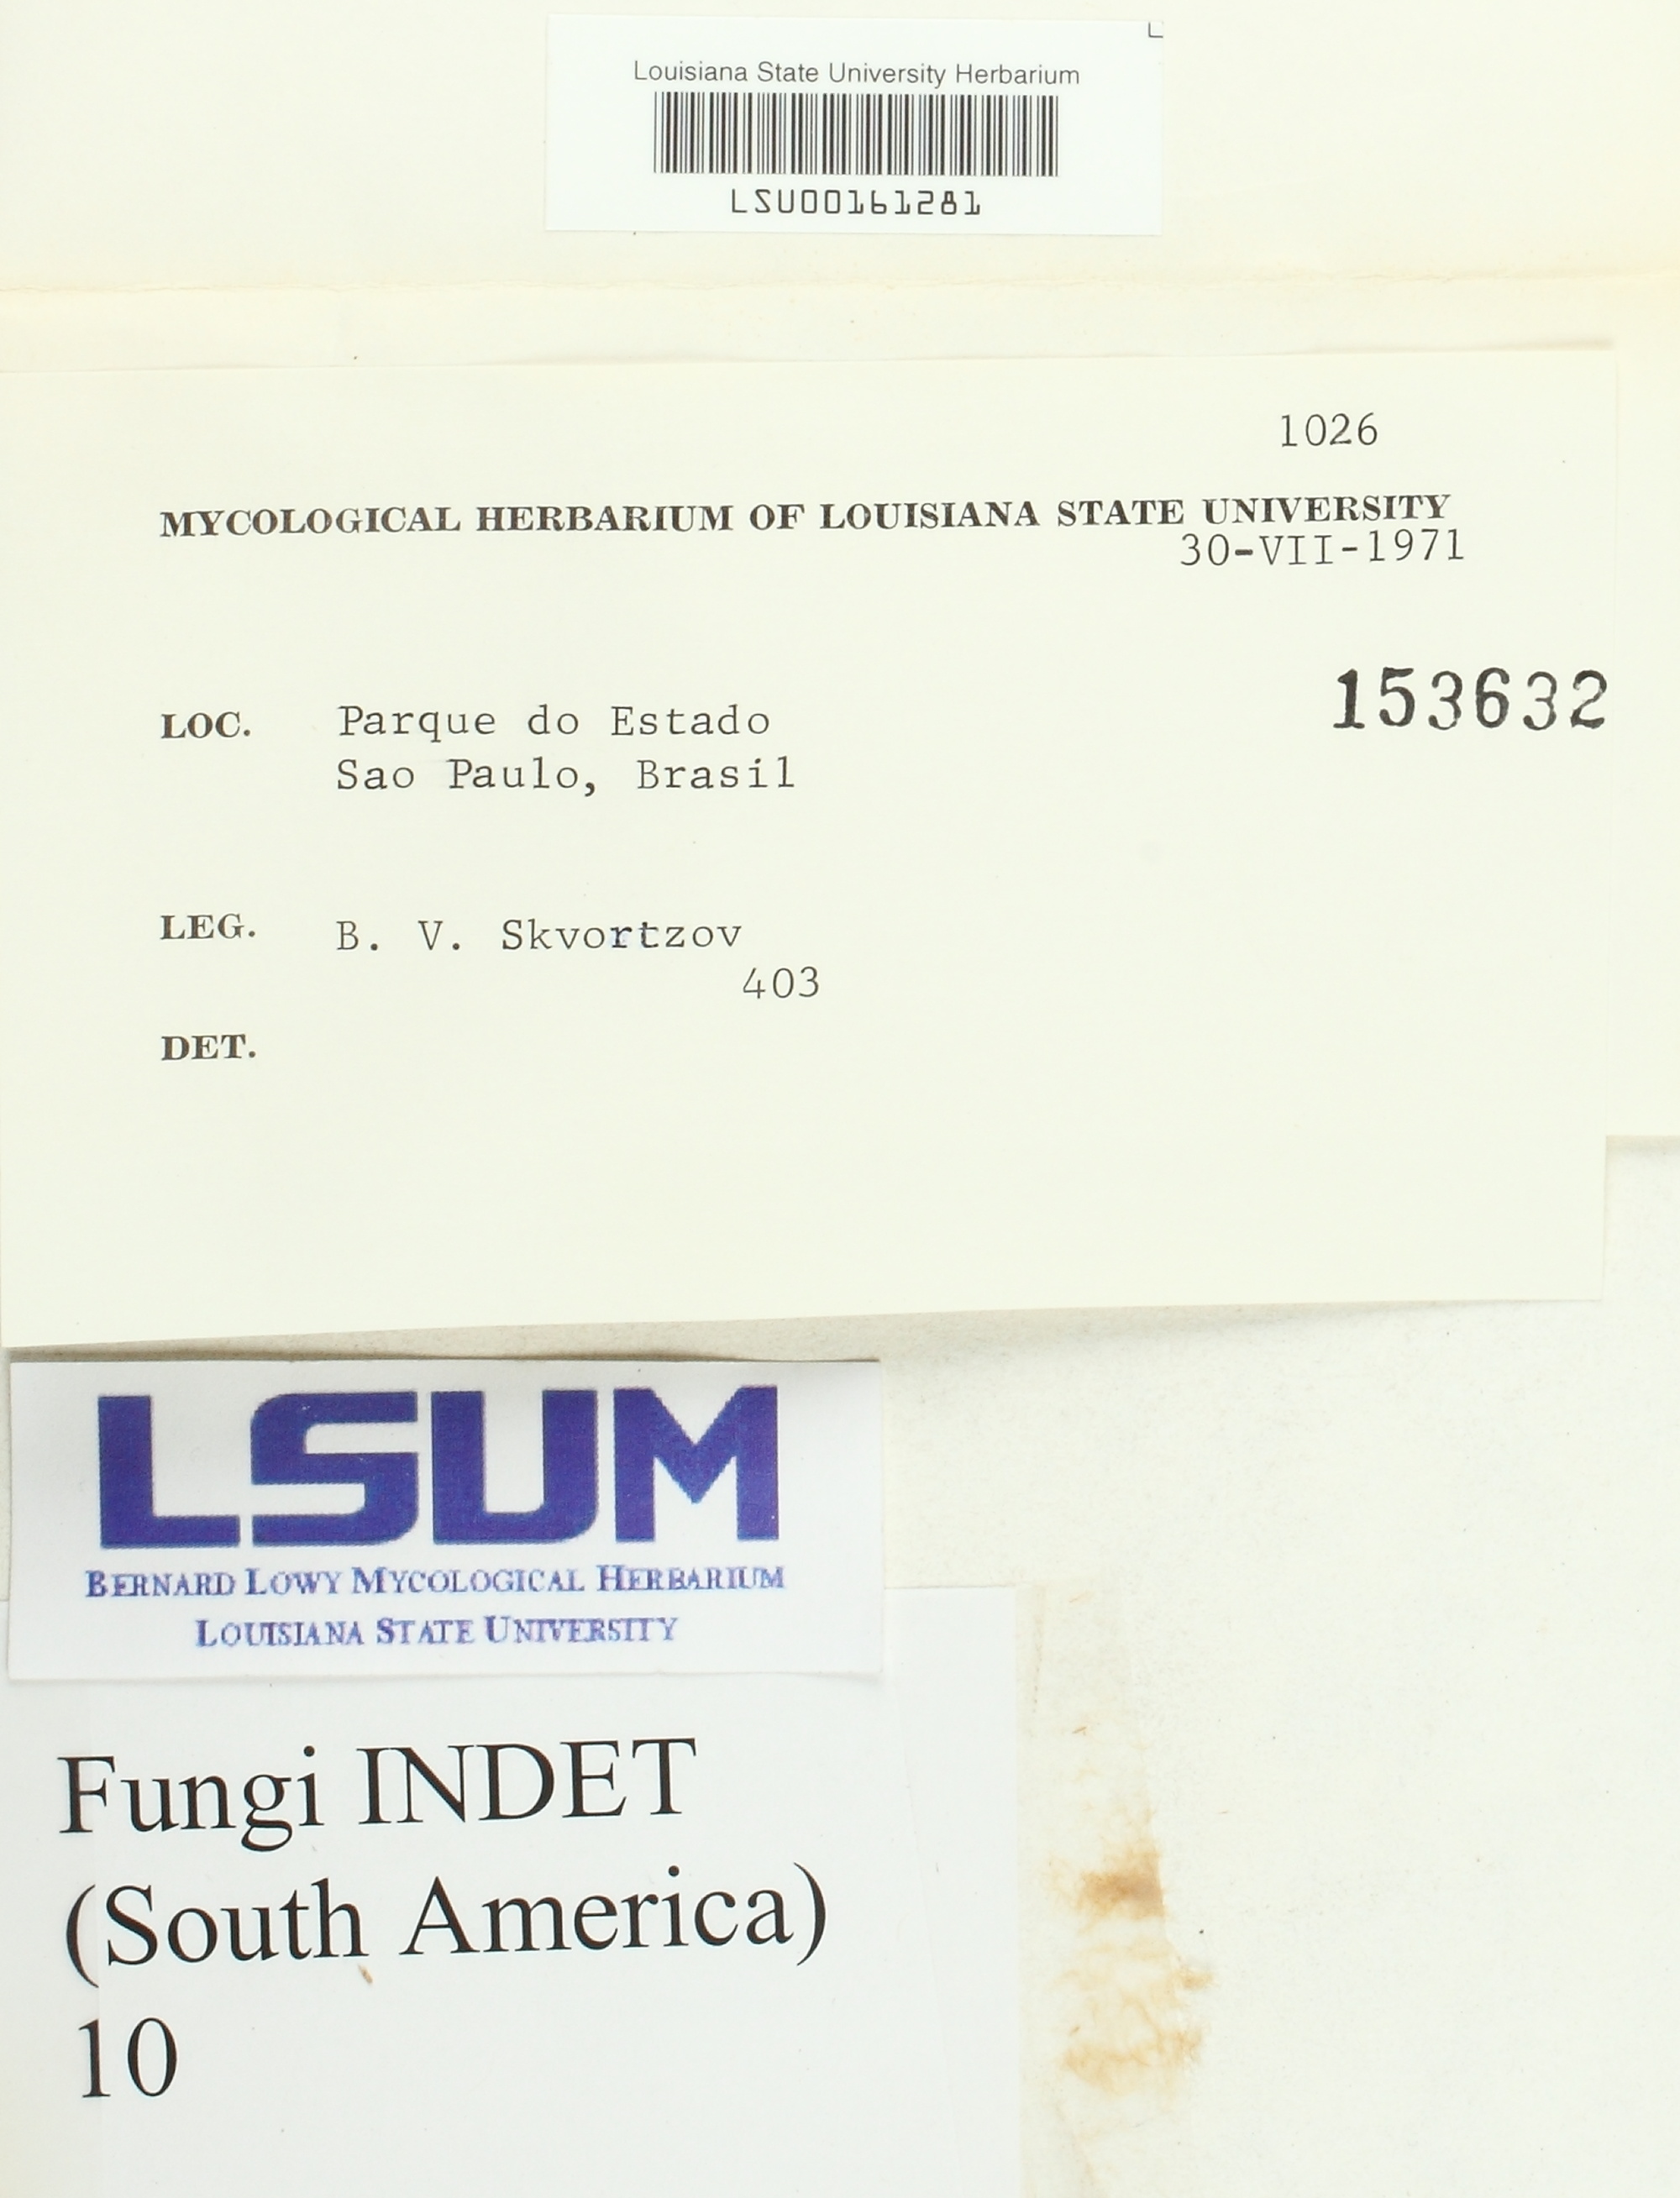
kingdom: Fungi
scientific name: Fungi
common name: Fungi
